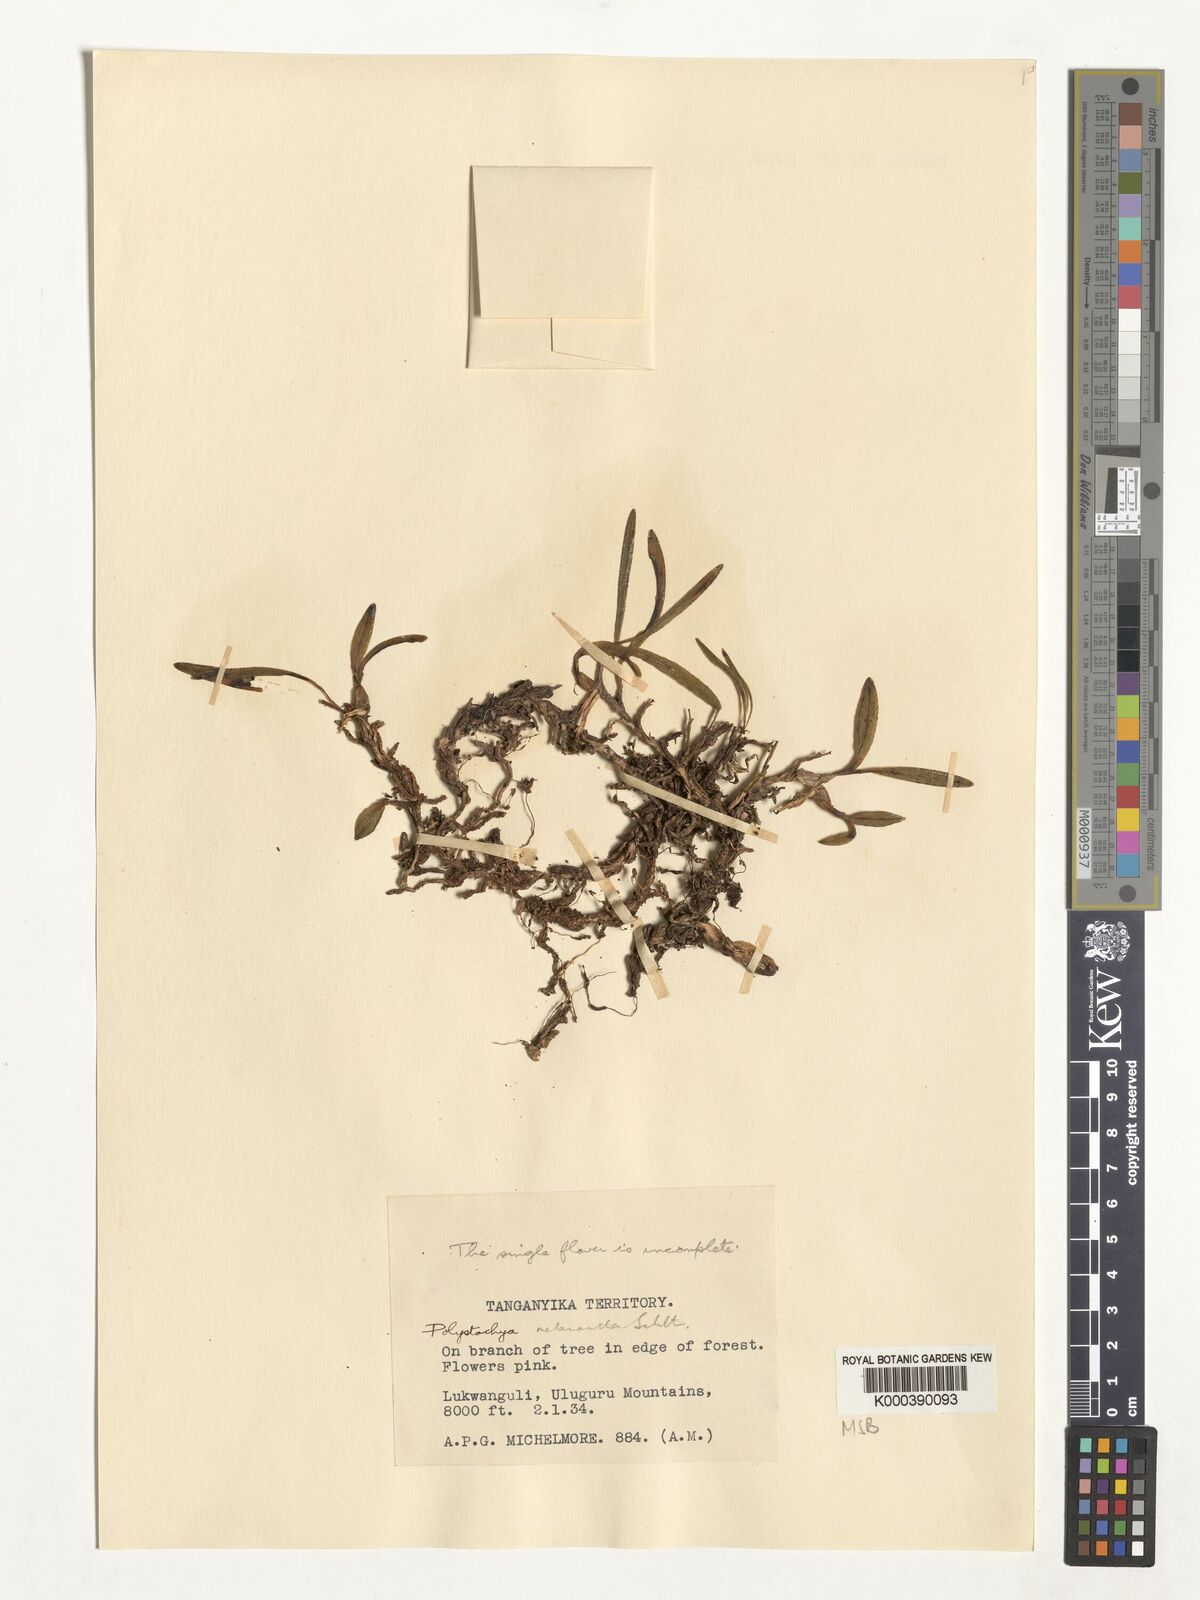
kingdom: Plantae
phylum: Tracheophyta
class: Liliopsida
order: Asparagales
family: Orchidaceae
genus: Polystachya
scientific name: Polystachya melanantha
